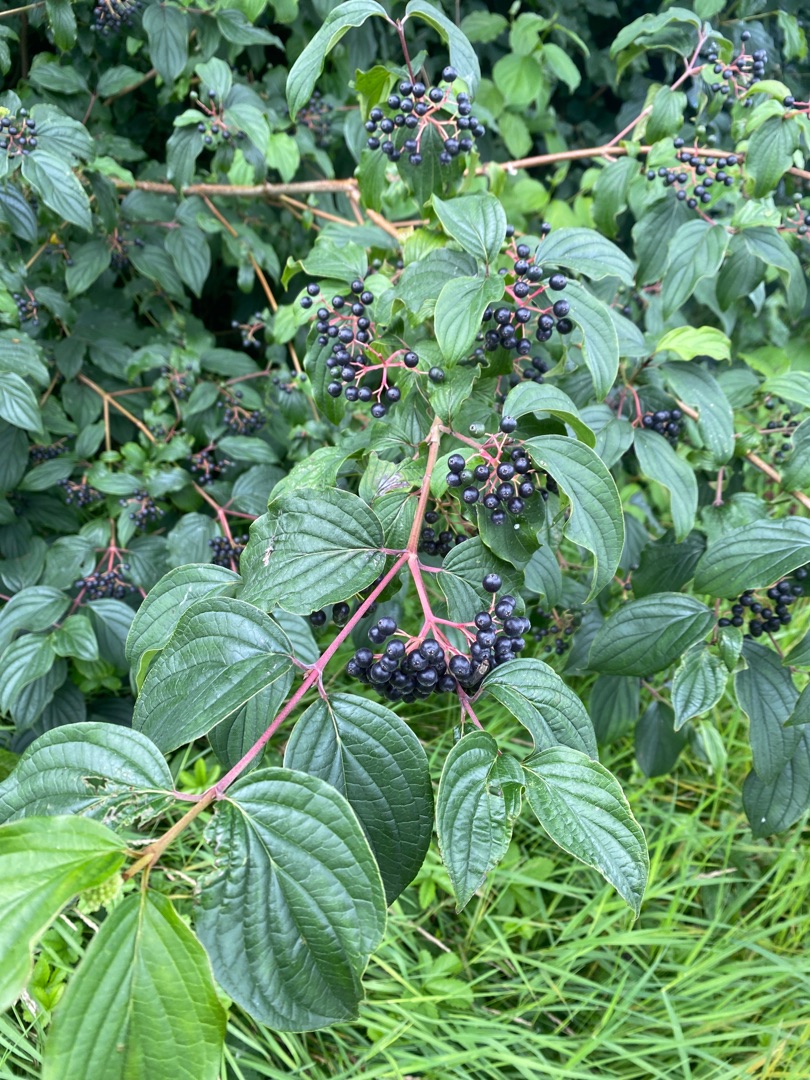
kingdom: Plantae
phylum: Tracheophyta
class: Magnoliopsida
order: Cornales
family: Cornaceae
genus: Cornus
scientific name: Cornus sanguinea
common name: Rød kornel
